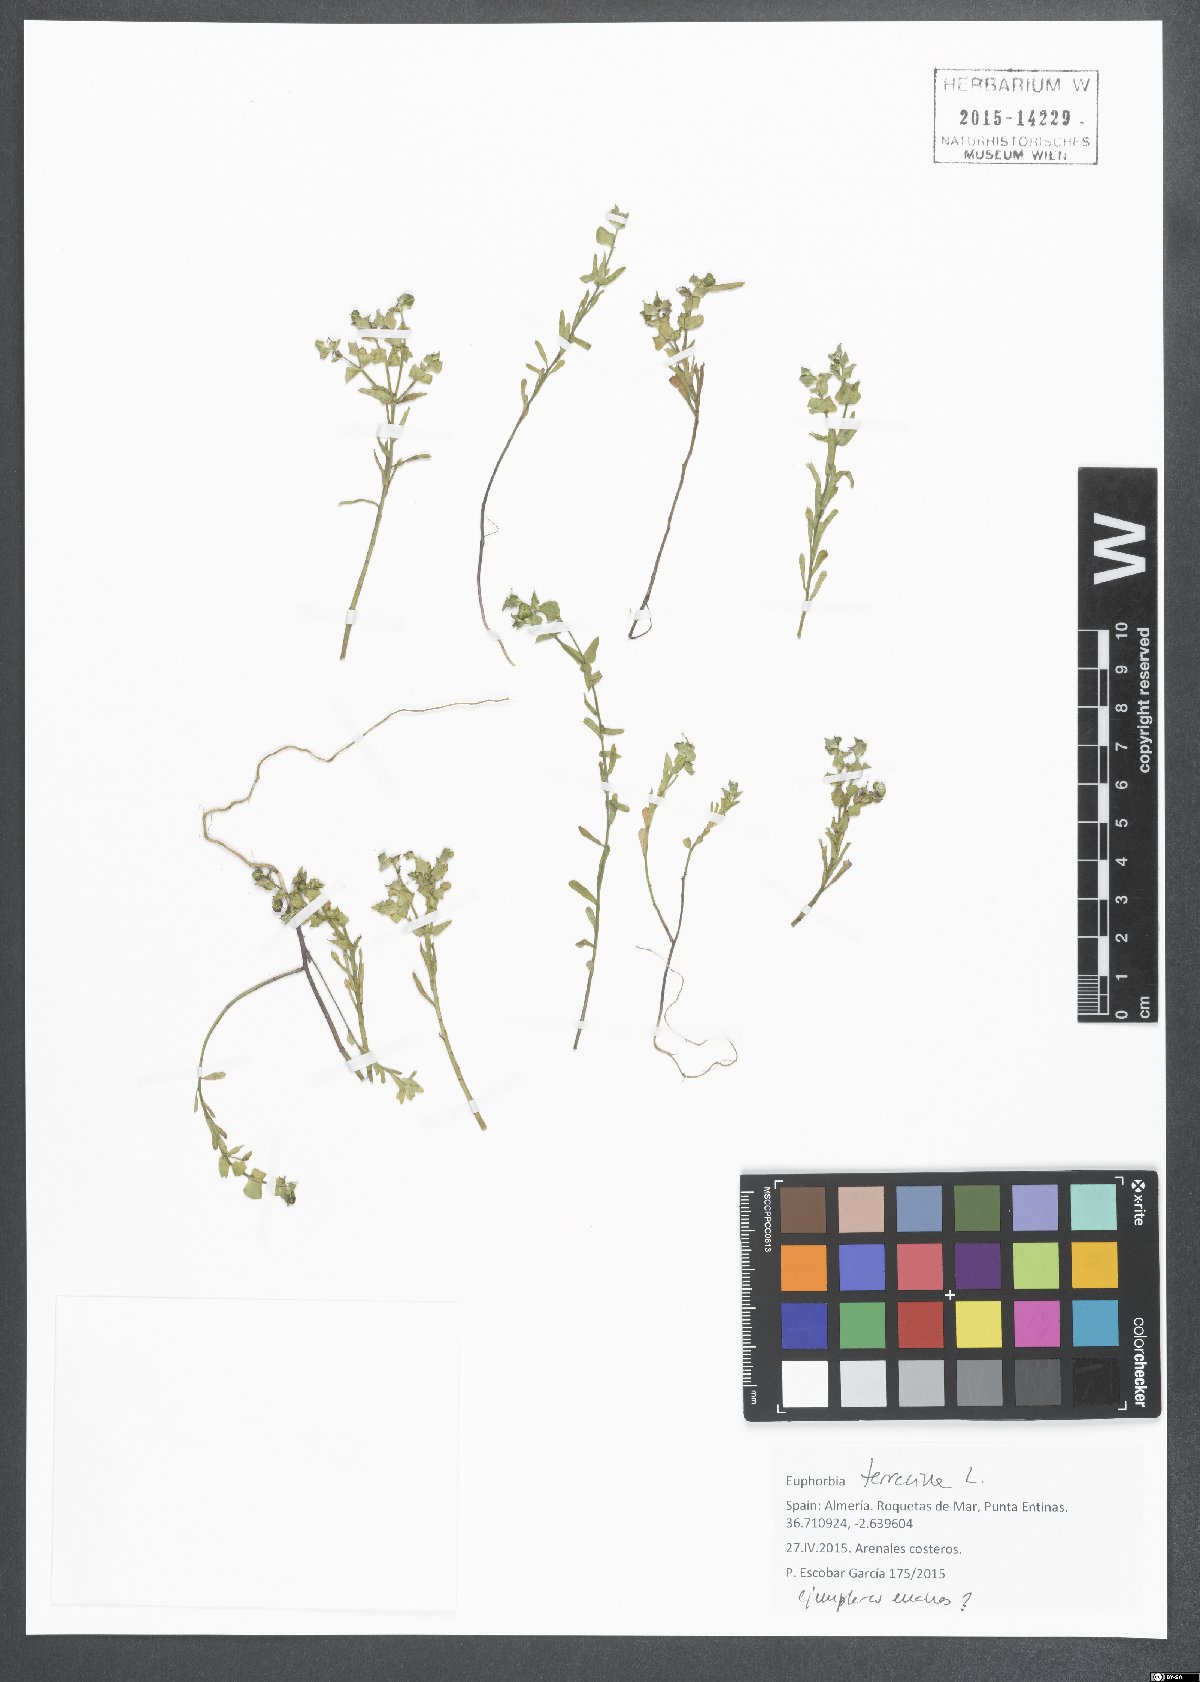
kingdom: Plantae
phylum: Tracheophyta
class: Magnoliopsida
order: Malpighiales
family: Euphorbiaceae
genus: Euphorbia
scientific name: Euphorbia terracina
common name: Geraldton carnation weed
